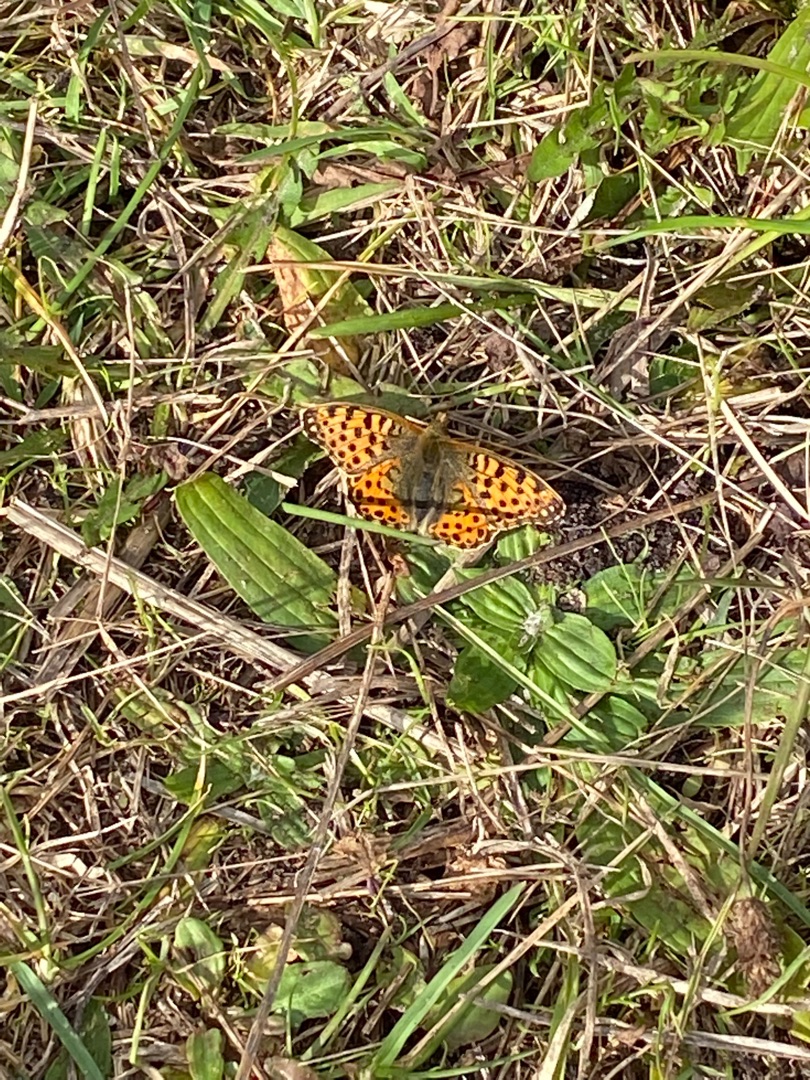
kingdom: Animalia
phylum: Arthropoda
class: Insecta
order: Lepidoptera
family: Nymphalidae
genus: Issoria
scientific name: Issoria lathonia
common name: Storplettet perlemorsommerfugl
